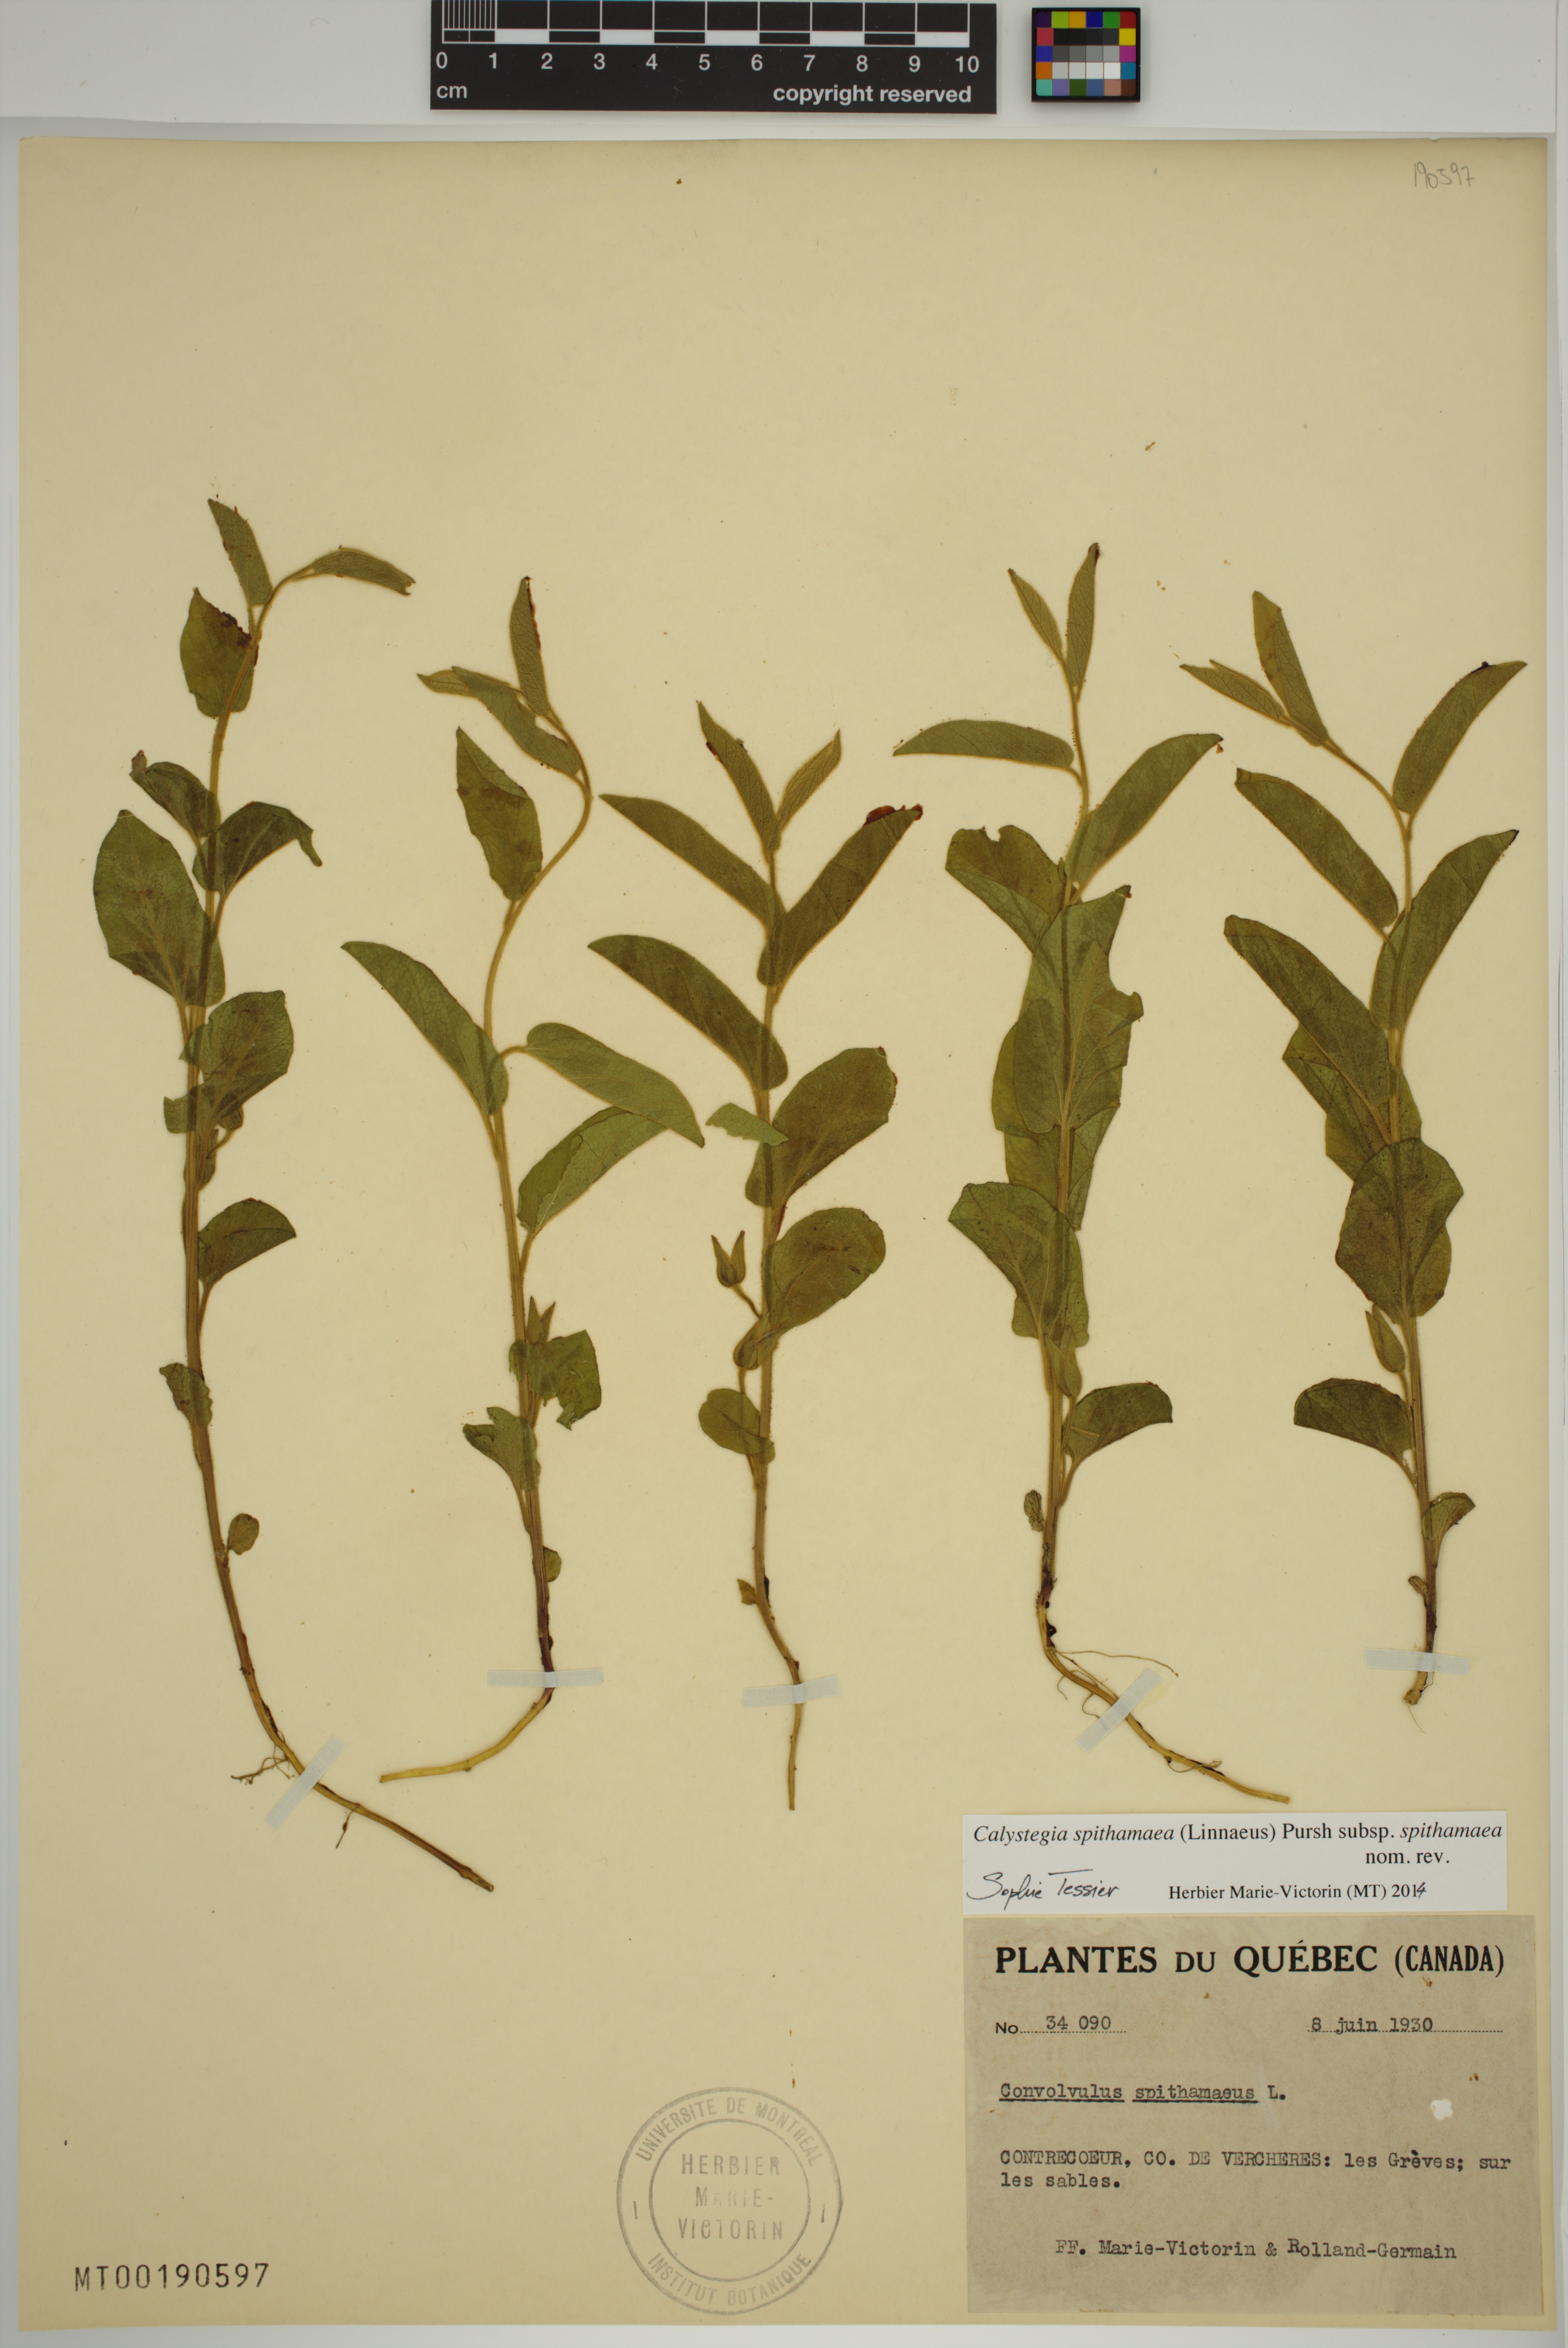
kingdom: Plantae
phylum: Tracheophyta
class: Magnoliopsida
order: Solanales
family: Convolvulaceae
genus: Calystegia
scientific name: Calystegia spithamaea
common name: Dwarf bindweed
